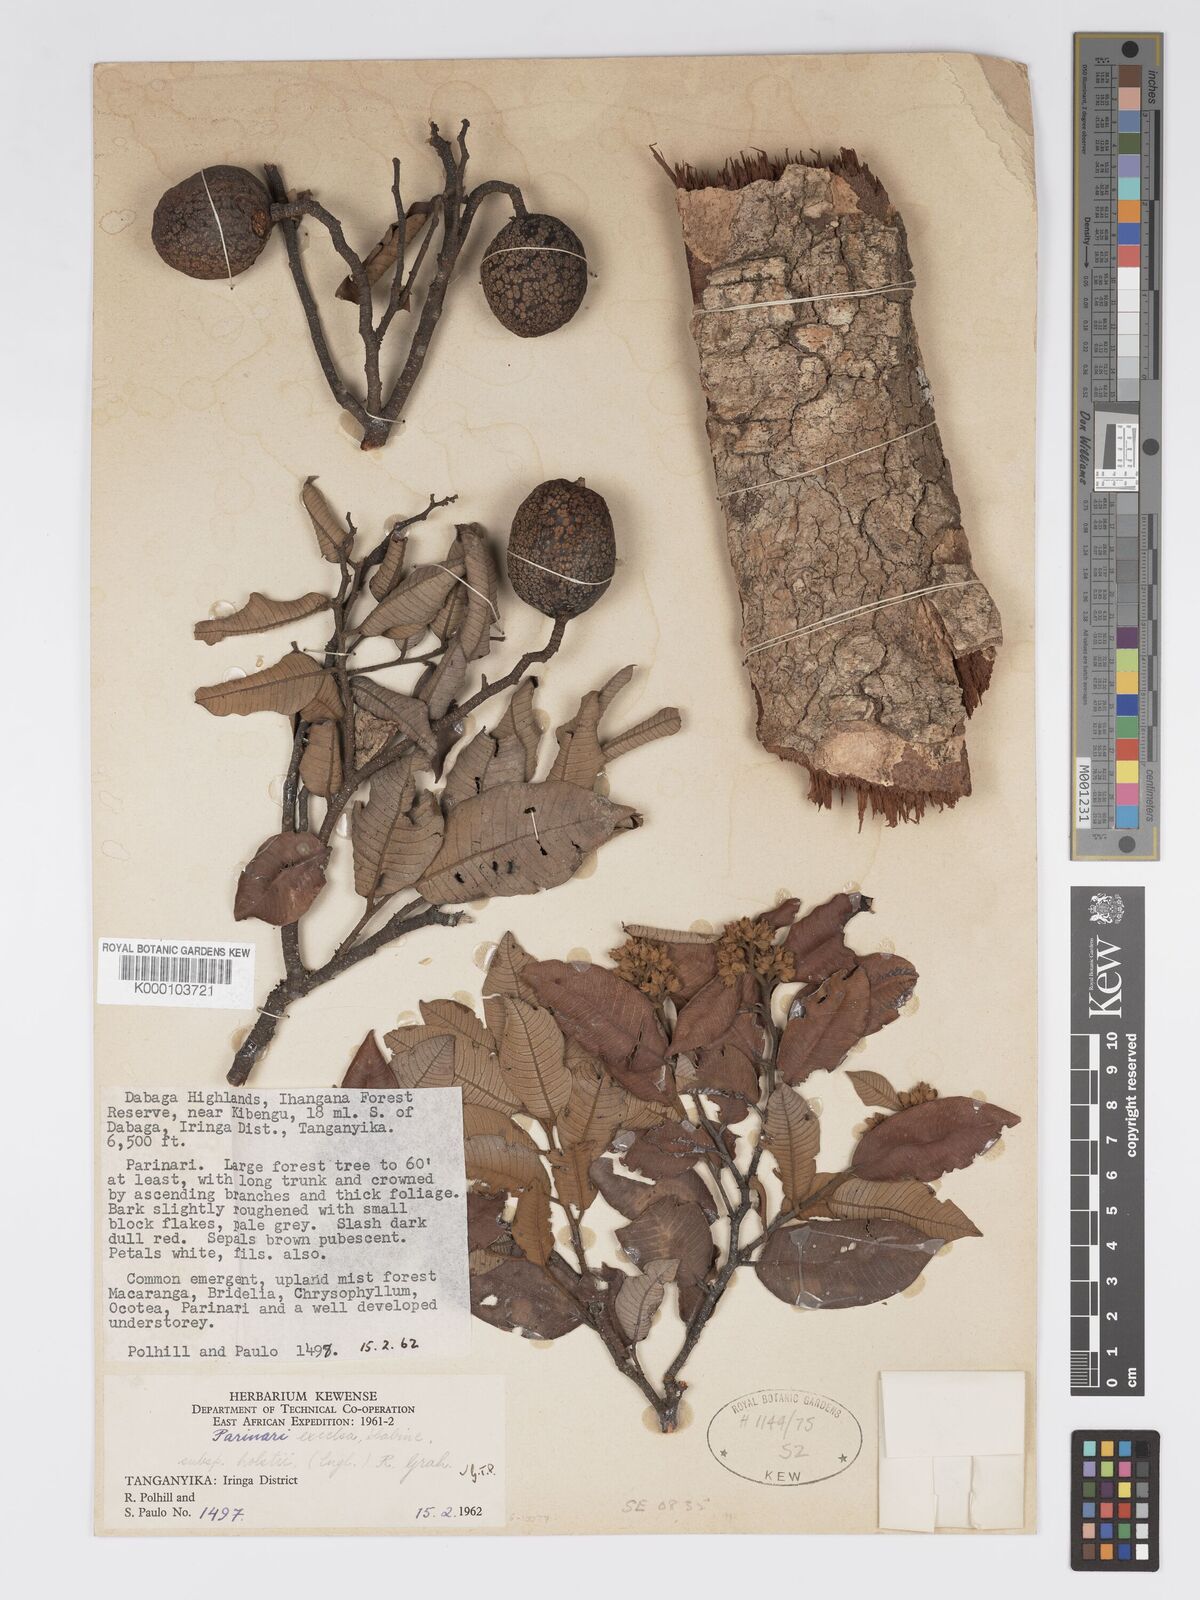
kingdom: Plantae
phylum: Tracheophyta
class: Magnoliopsida
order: Malpighiales
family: Chrysobalanaceae
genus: Parinari
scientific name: Parinari excelsa
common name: Guinea-plum
